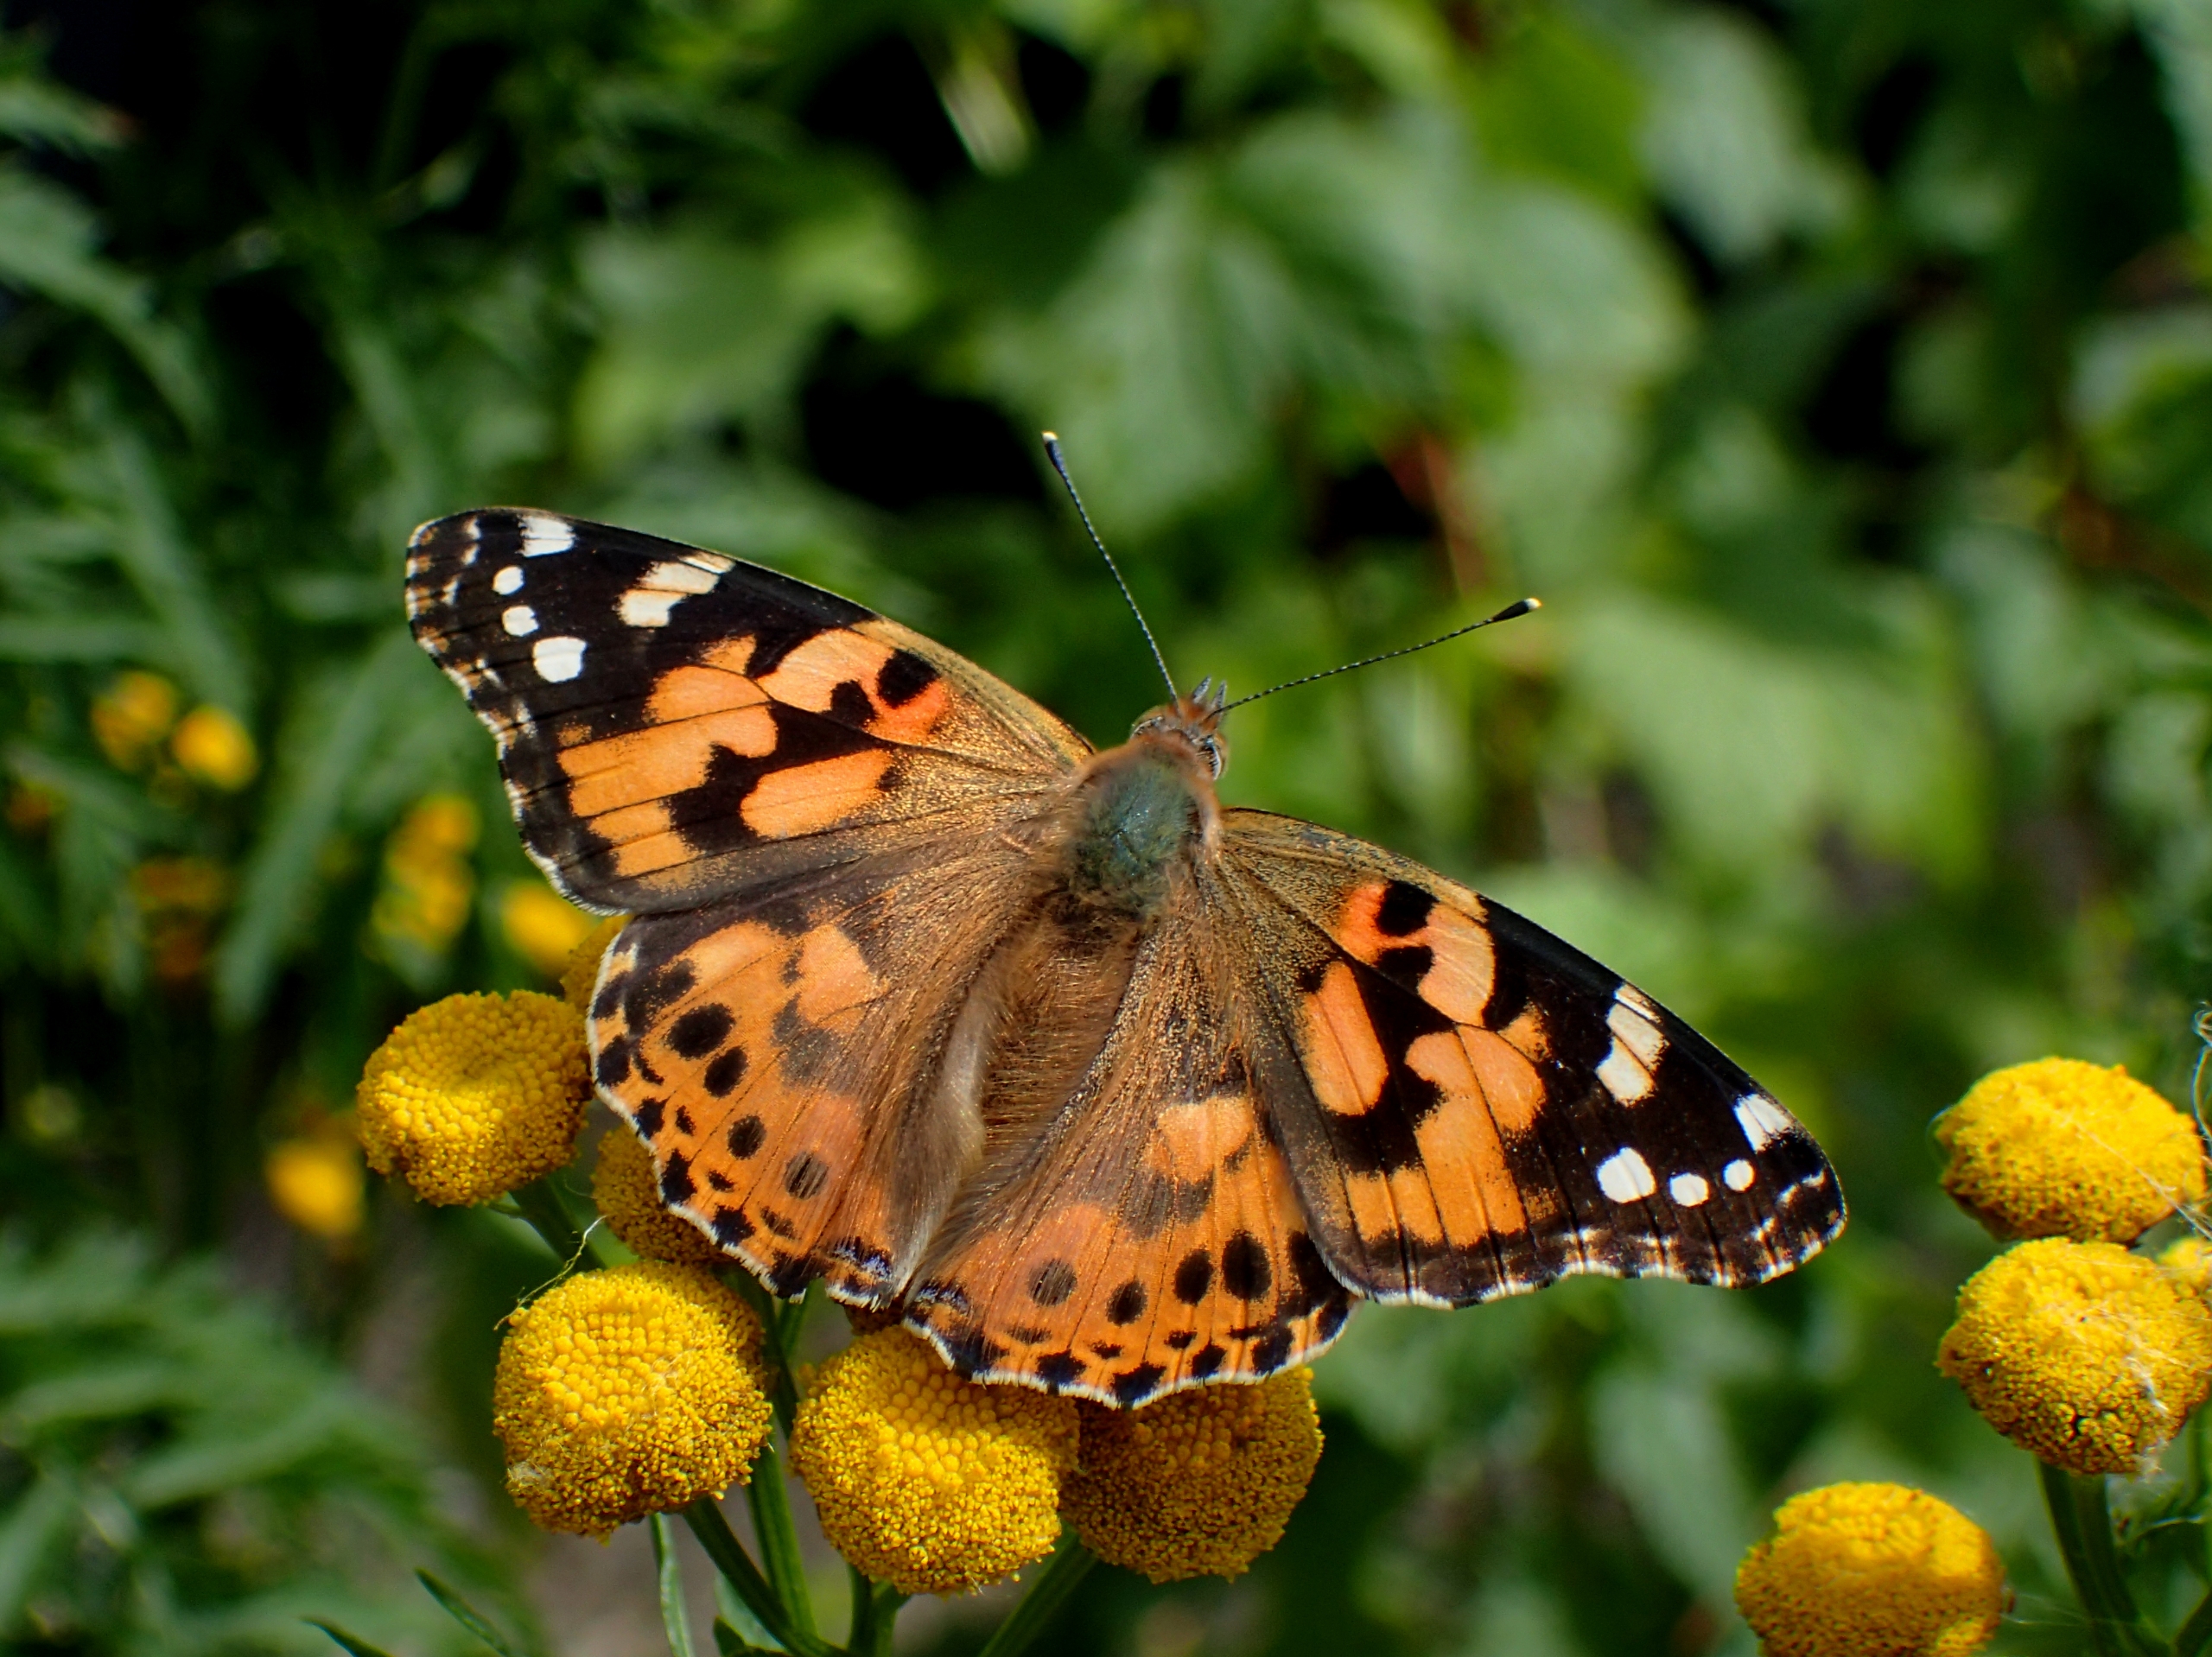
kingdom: Animalia
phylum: Arthropoda
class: Insecta
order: Lepidoptera
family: Nymphalidae
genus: Vanessa
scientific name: Vanessa cardui
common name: Tidselsommerfugl
